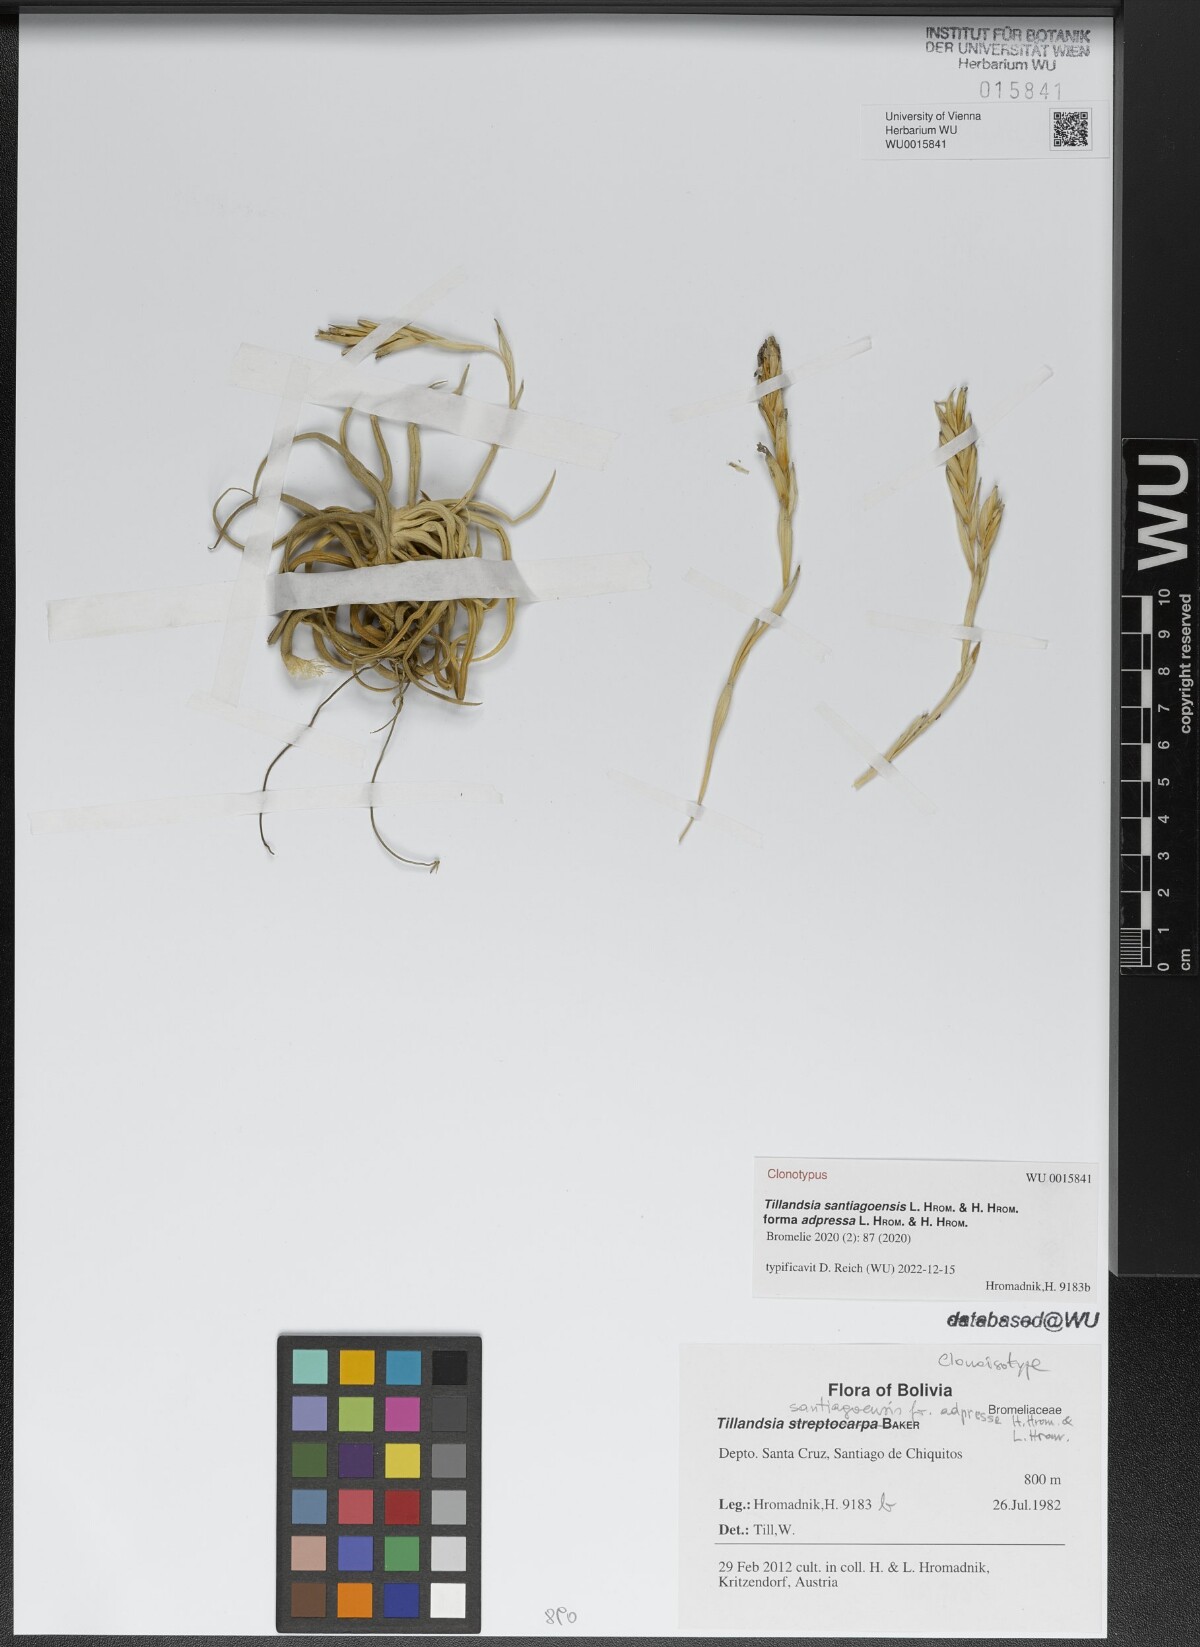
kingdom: Plantae
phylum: Tracheophyta
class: Liliopsida
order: Poales
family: Bromeliaceae
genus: Tillandsia
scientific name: Tillandsia santiagoensis
